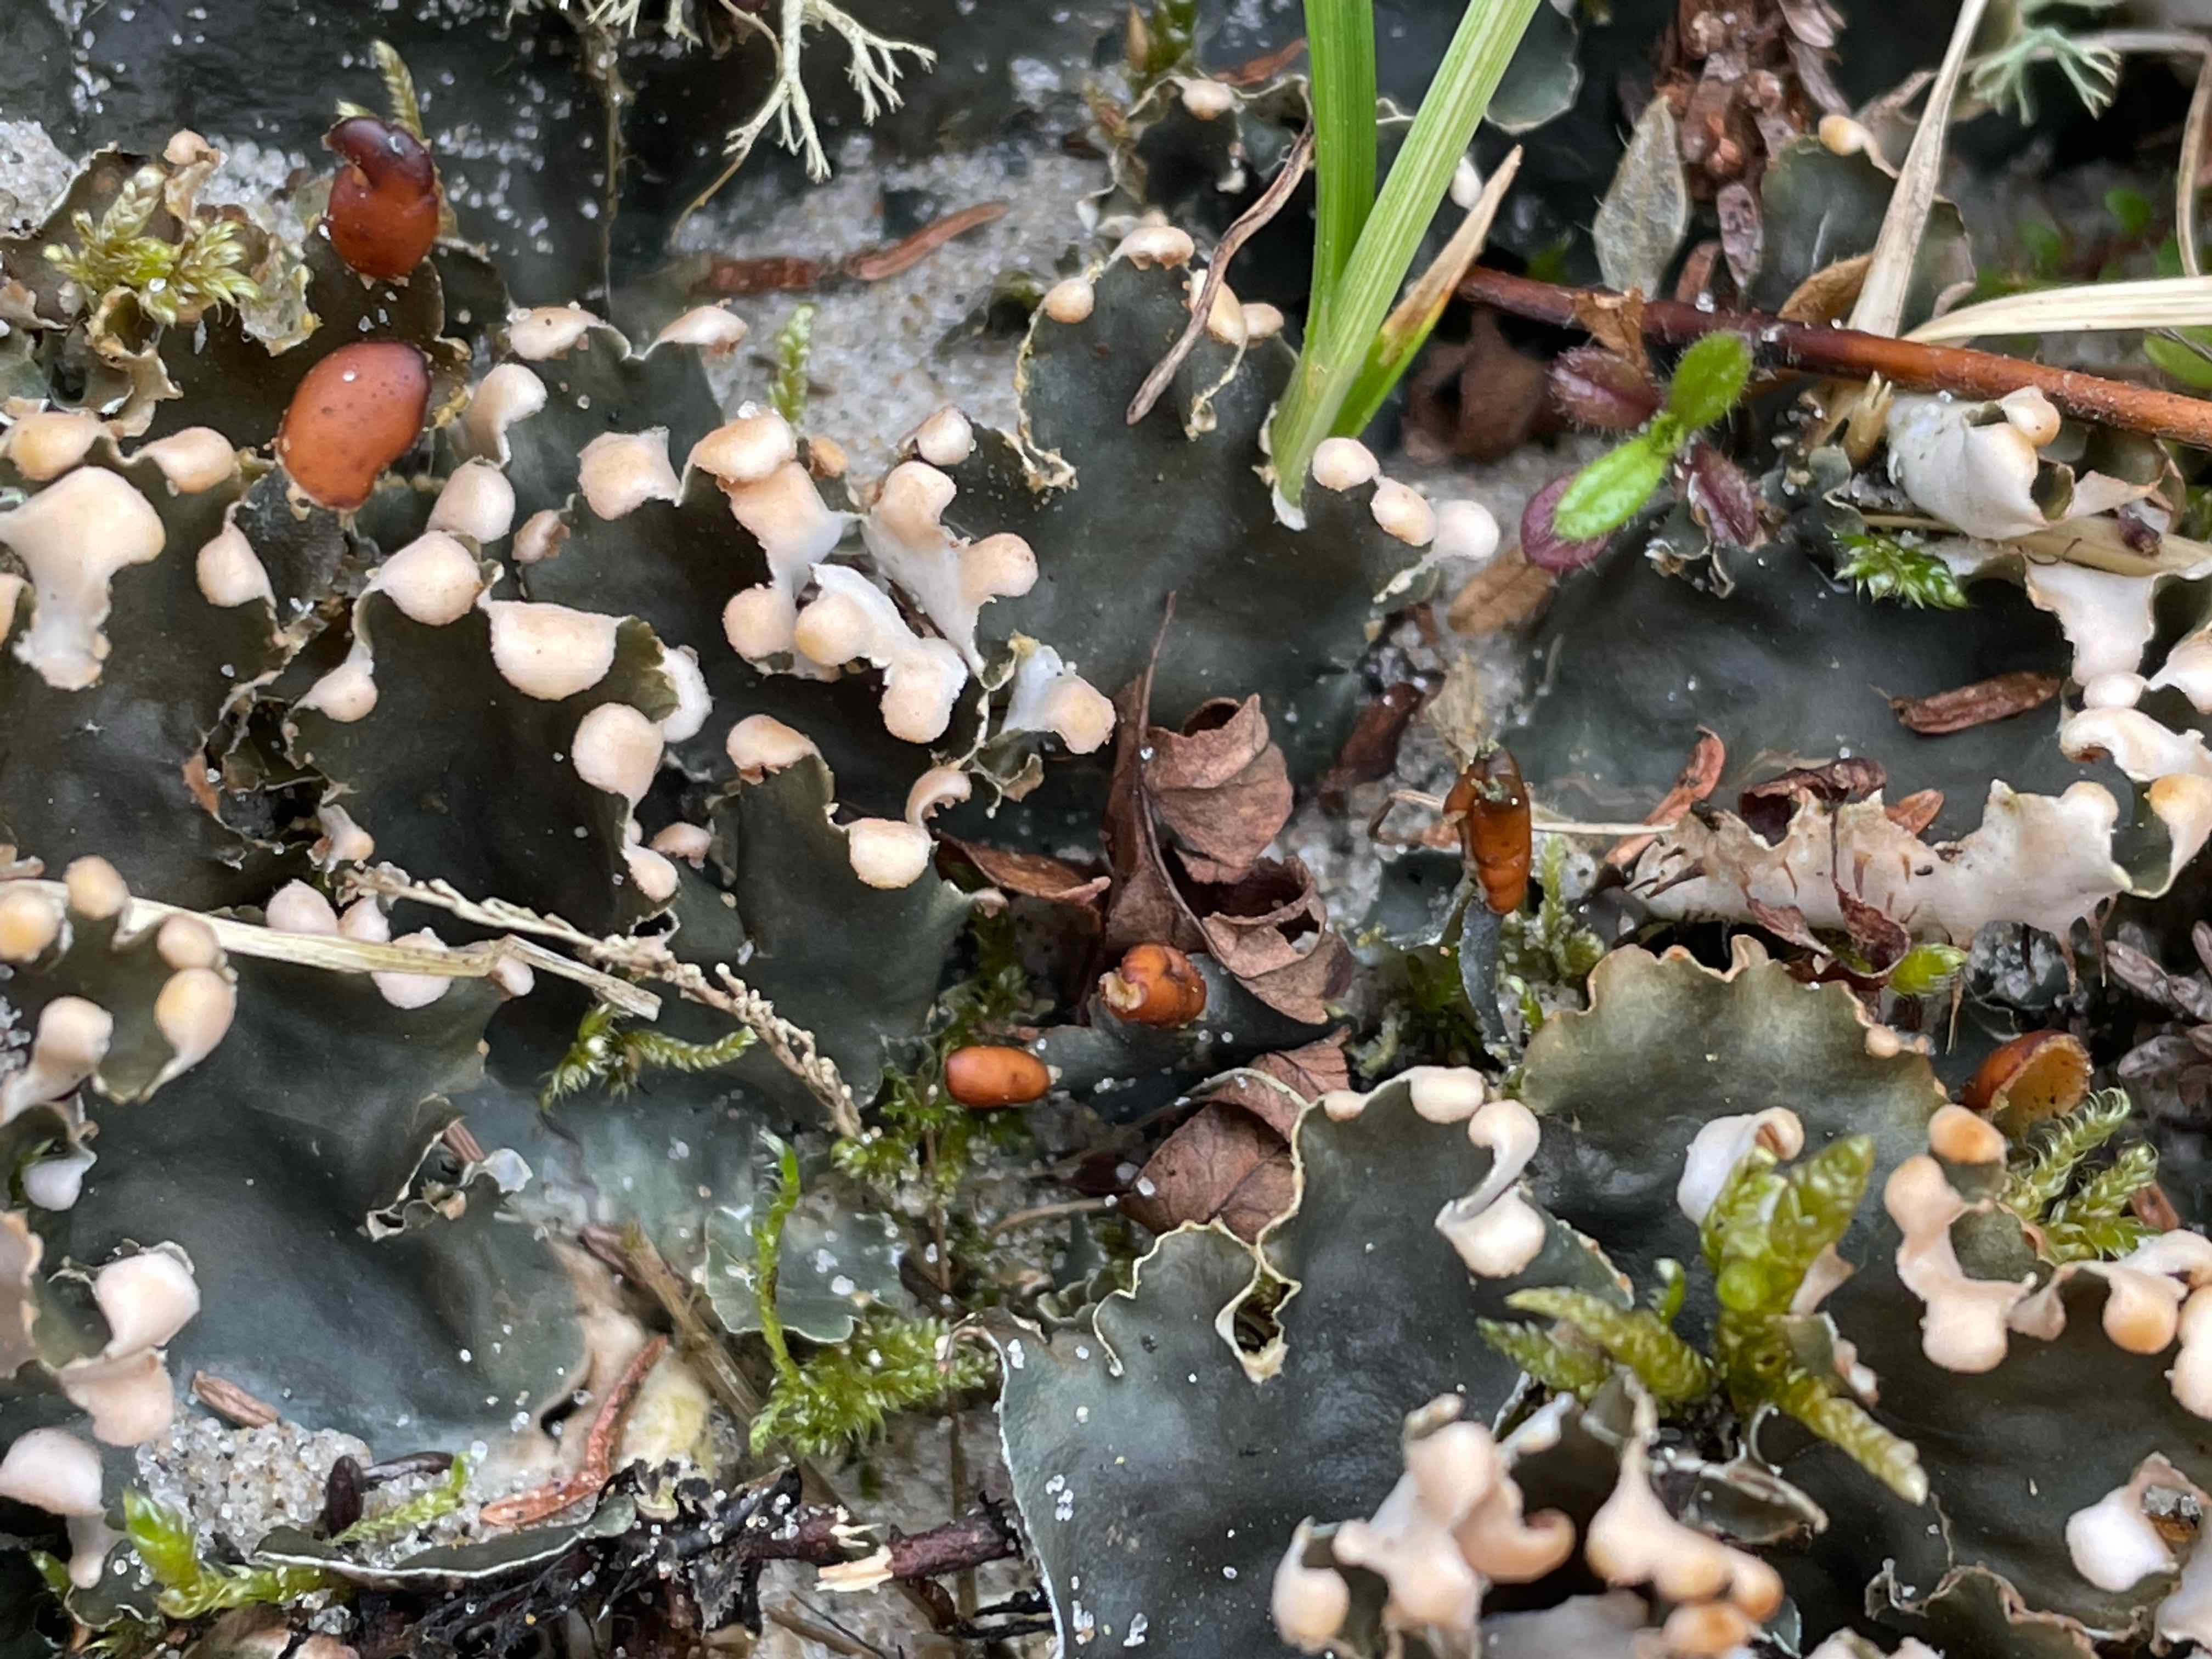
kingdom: Fungi
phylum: Ascomycota
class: Lecanoromycetes
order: Peltigerales
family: Peltigeraceae
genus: Peltigera
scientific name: Peltigera hymenina
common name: hinde-skjoldlav
